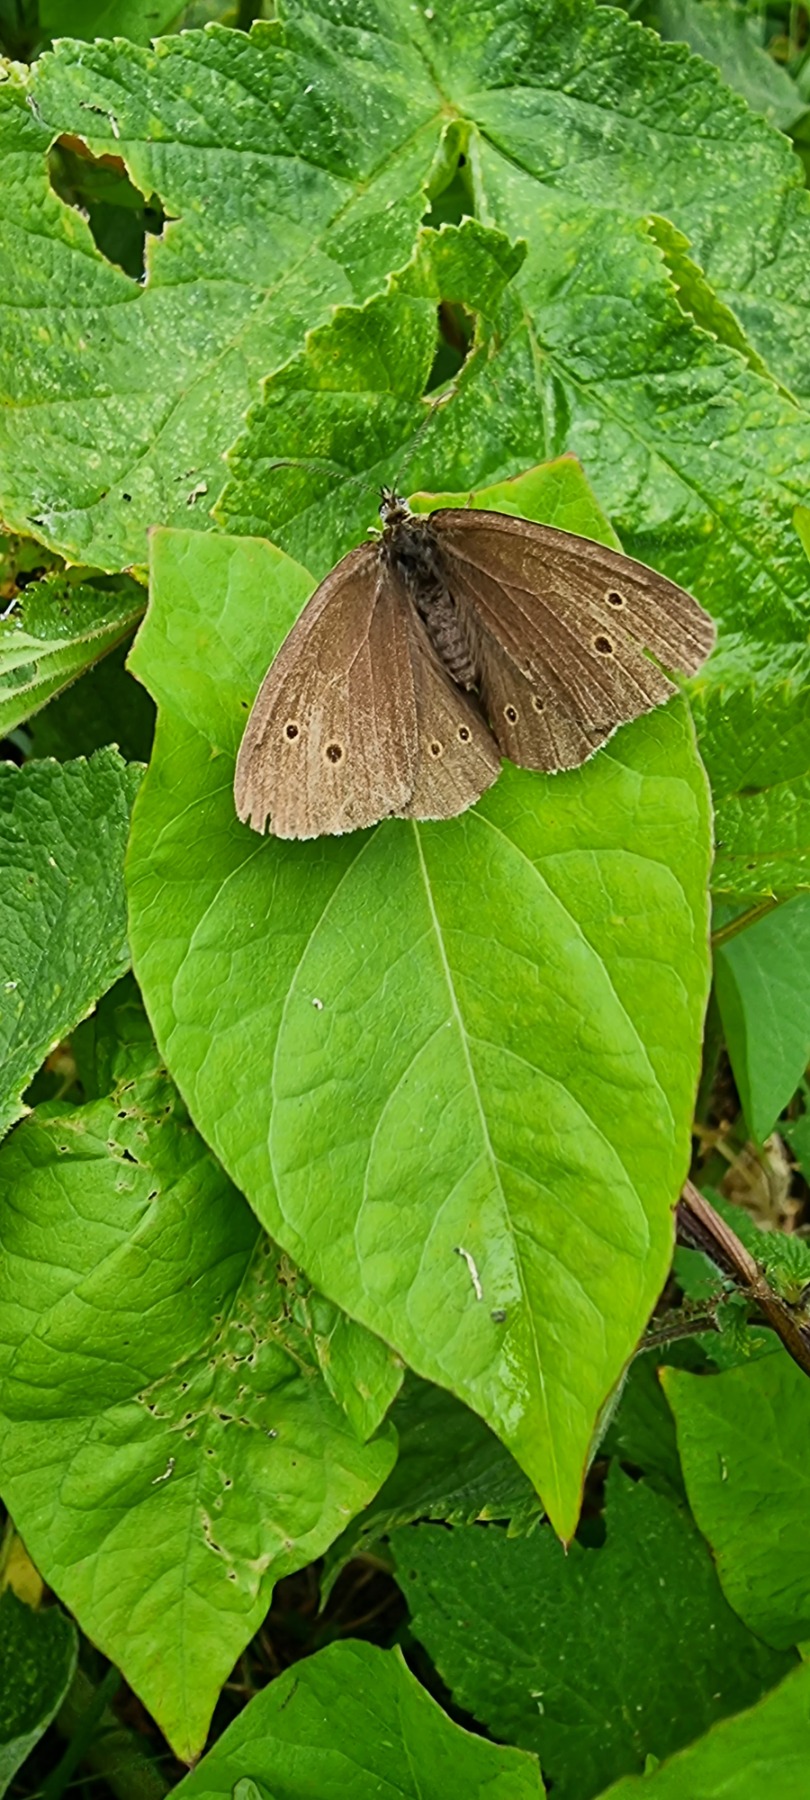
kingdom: Animalia
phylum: Arthropoda
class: Insecta
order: Lepidoptera
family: Nymphalidae
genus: Aphantopus
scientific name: Aphantopus hyperantus
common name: Engrandøje
